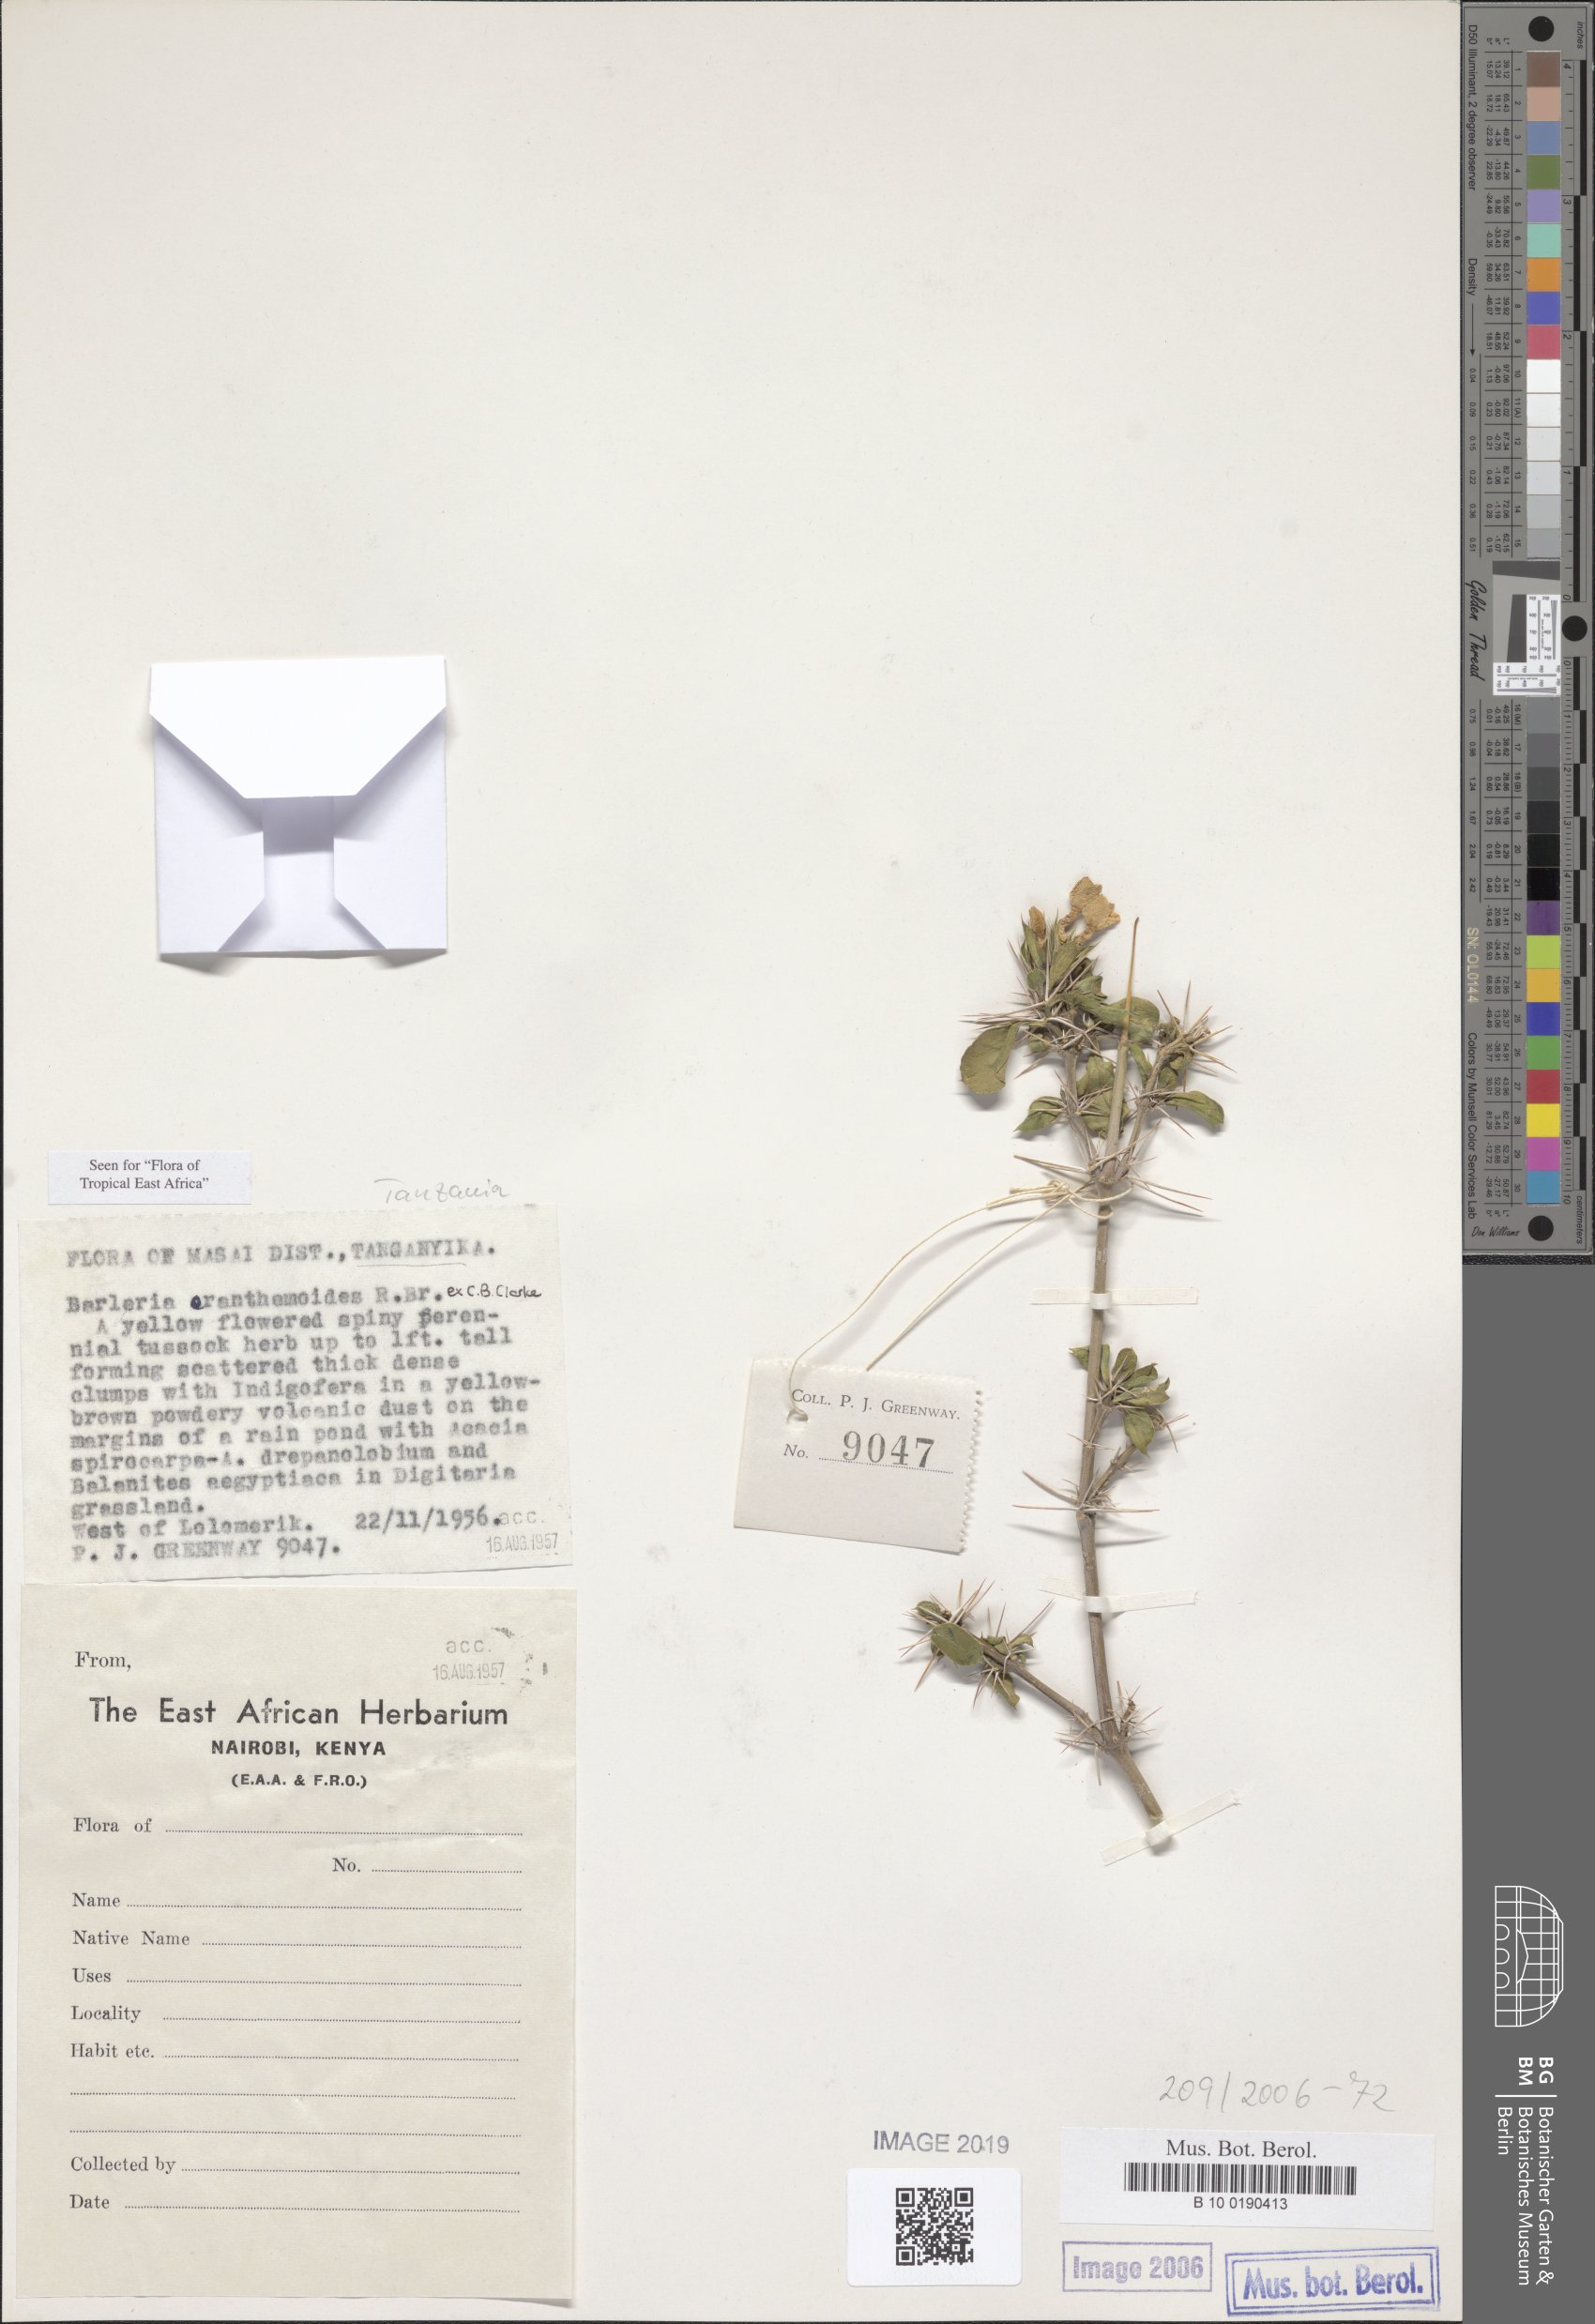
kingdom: Plantae
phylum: Tracheophyta
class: Magnoliopsida
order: Lamiales
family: Acanthaceae
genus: Barleria
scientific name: Barleria eranthemoides
